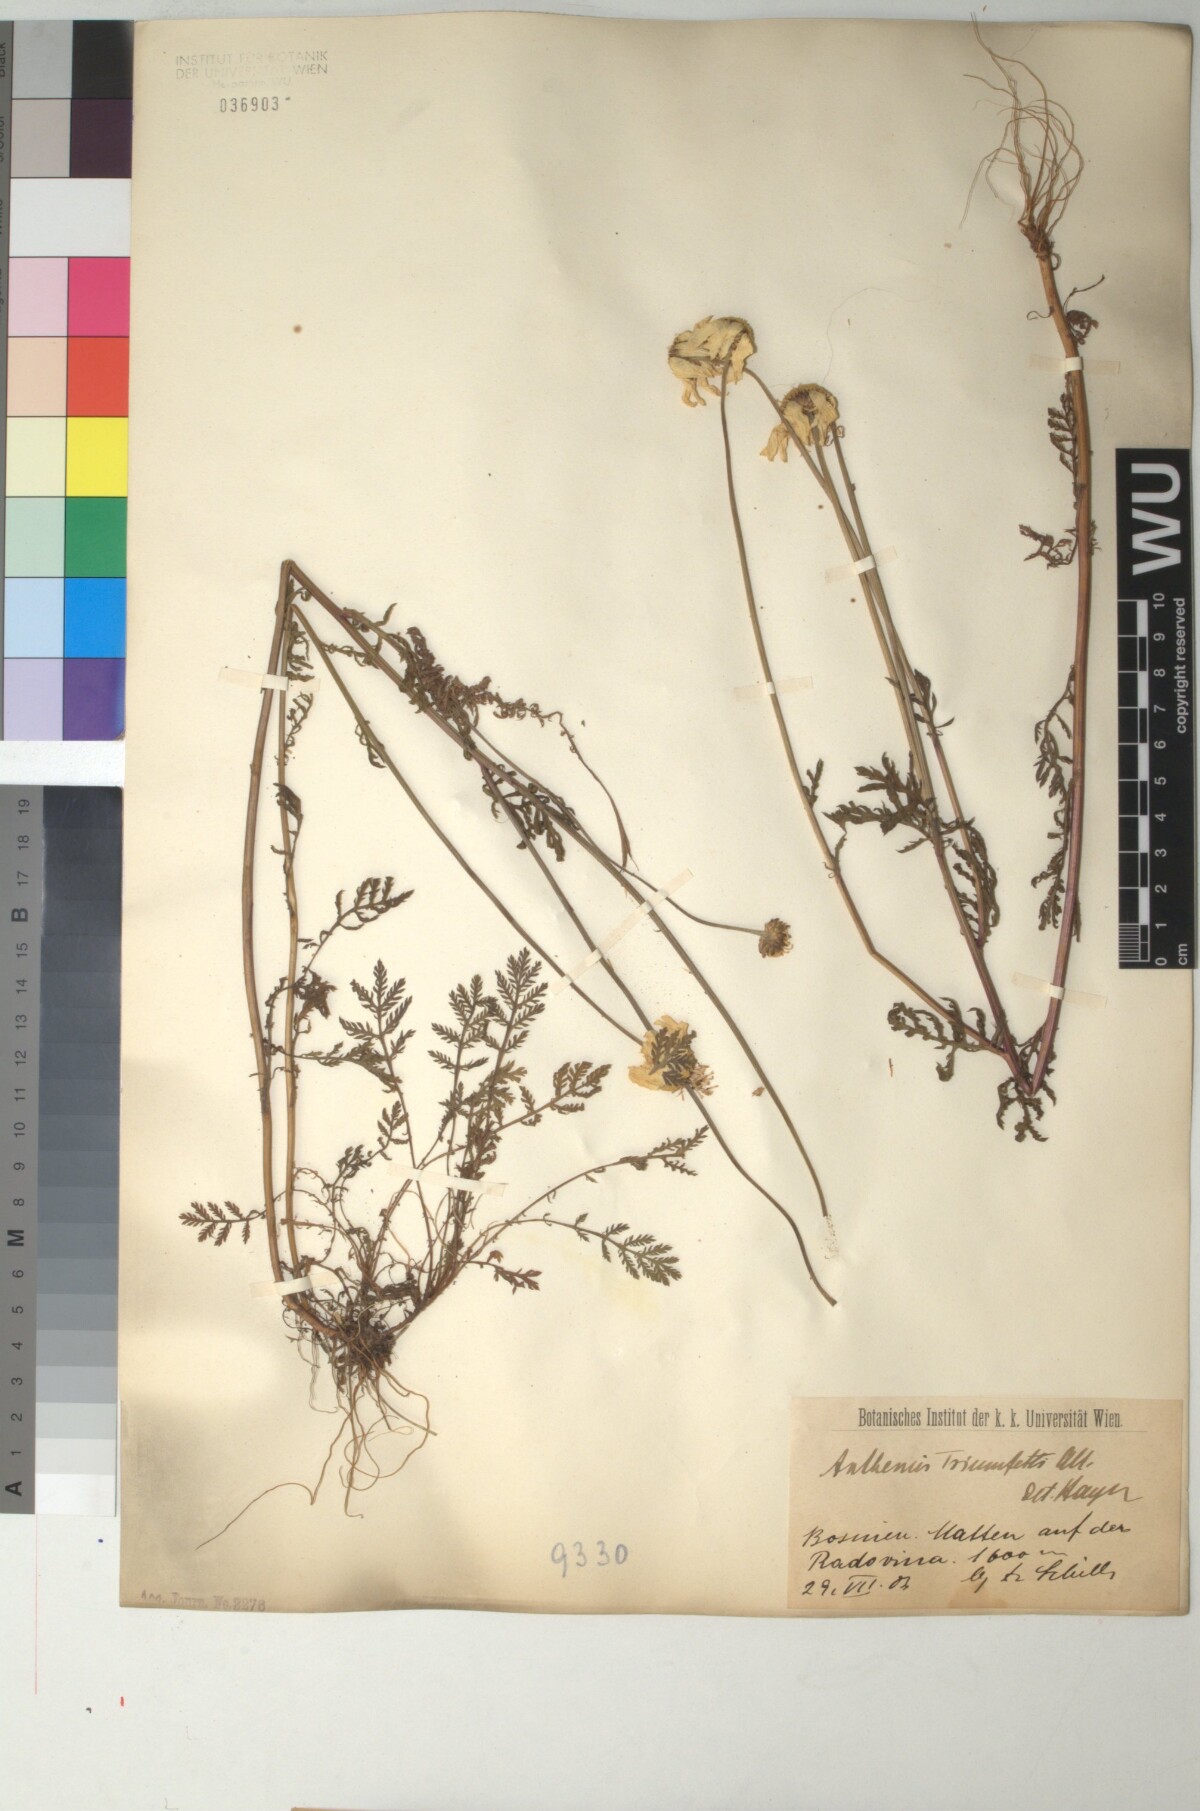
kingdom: Plantae
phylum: Tracheophyta
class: Magnoliopsida
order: Asterales
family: Asteraceae
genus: Cota
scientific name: Cota triumfetti
